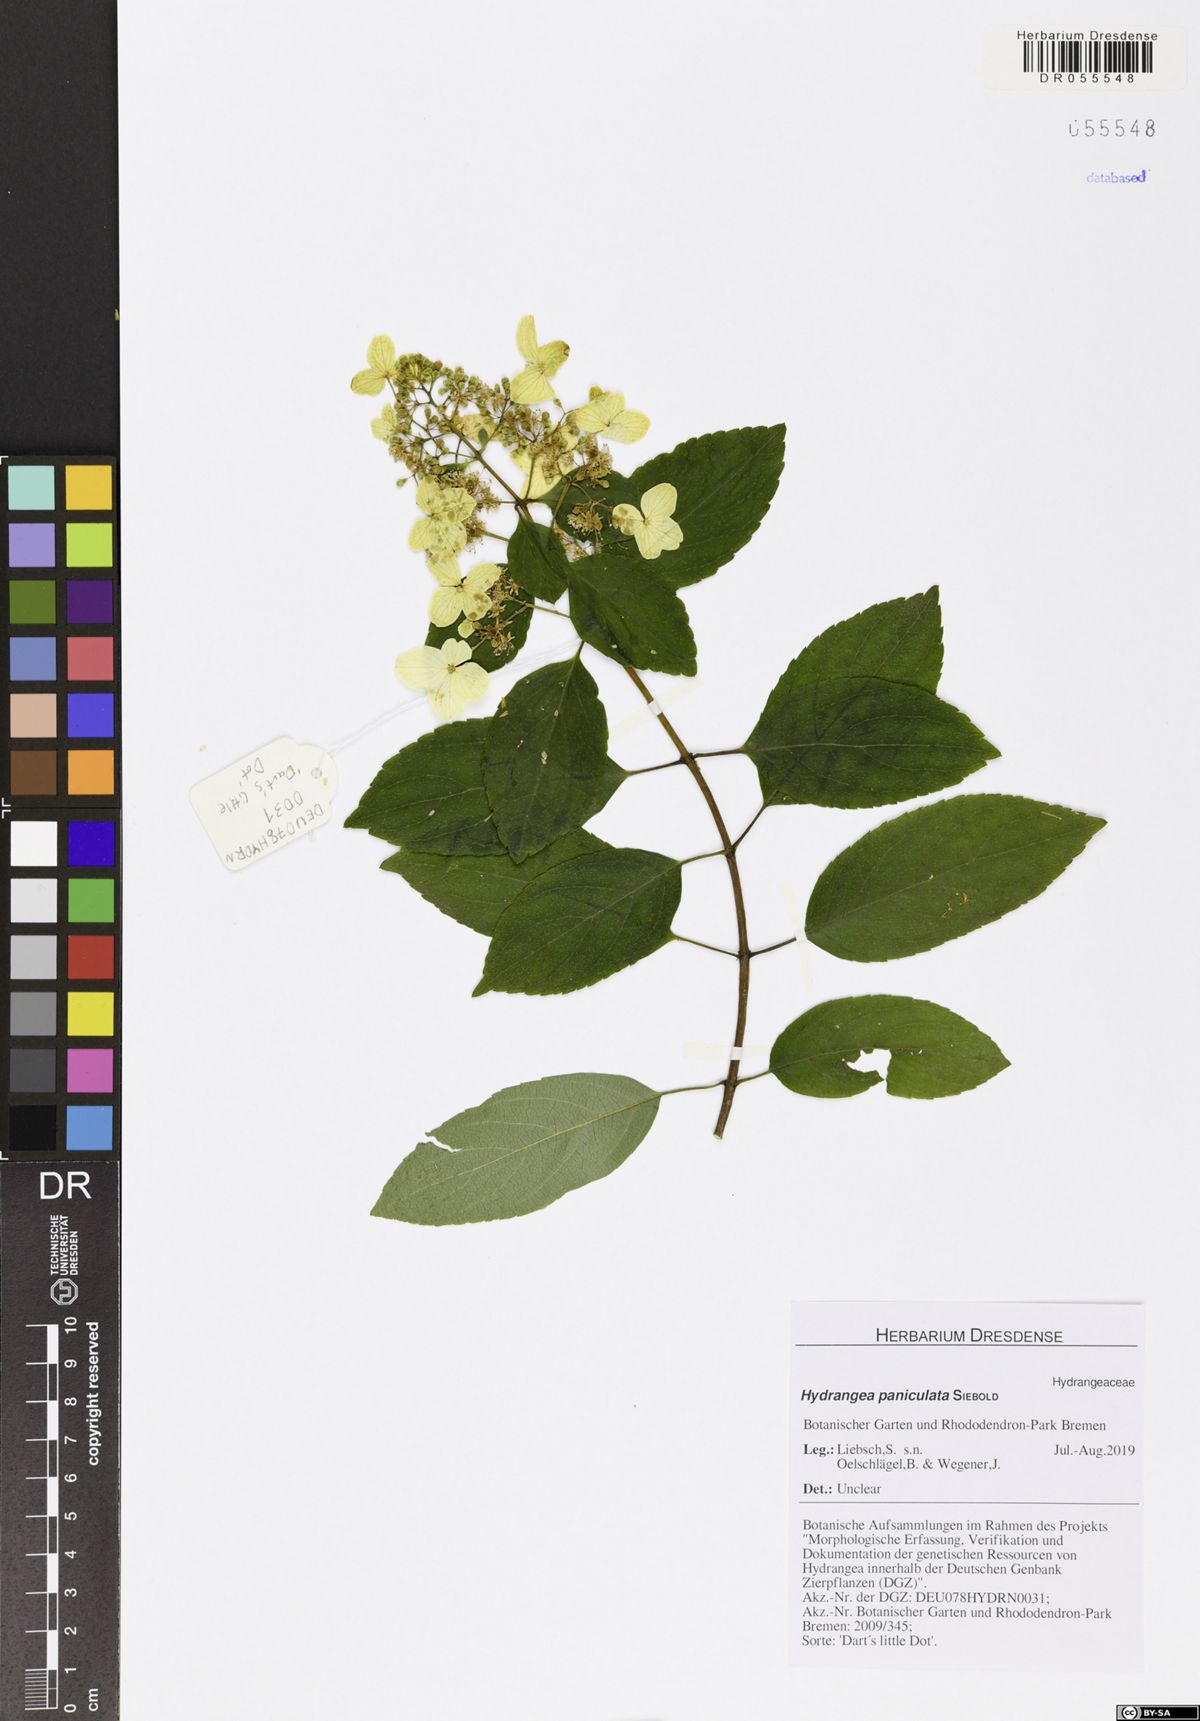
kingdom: Plantae
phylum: Tracheophyta
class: Magnoliopsida
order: Cornales
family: Hydrangeaceae
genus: Hydrangea
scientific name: Hydrangea paniculata
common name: Panicled hydrangea
